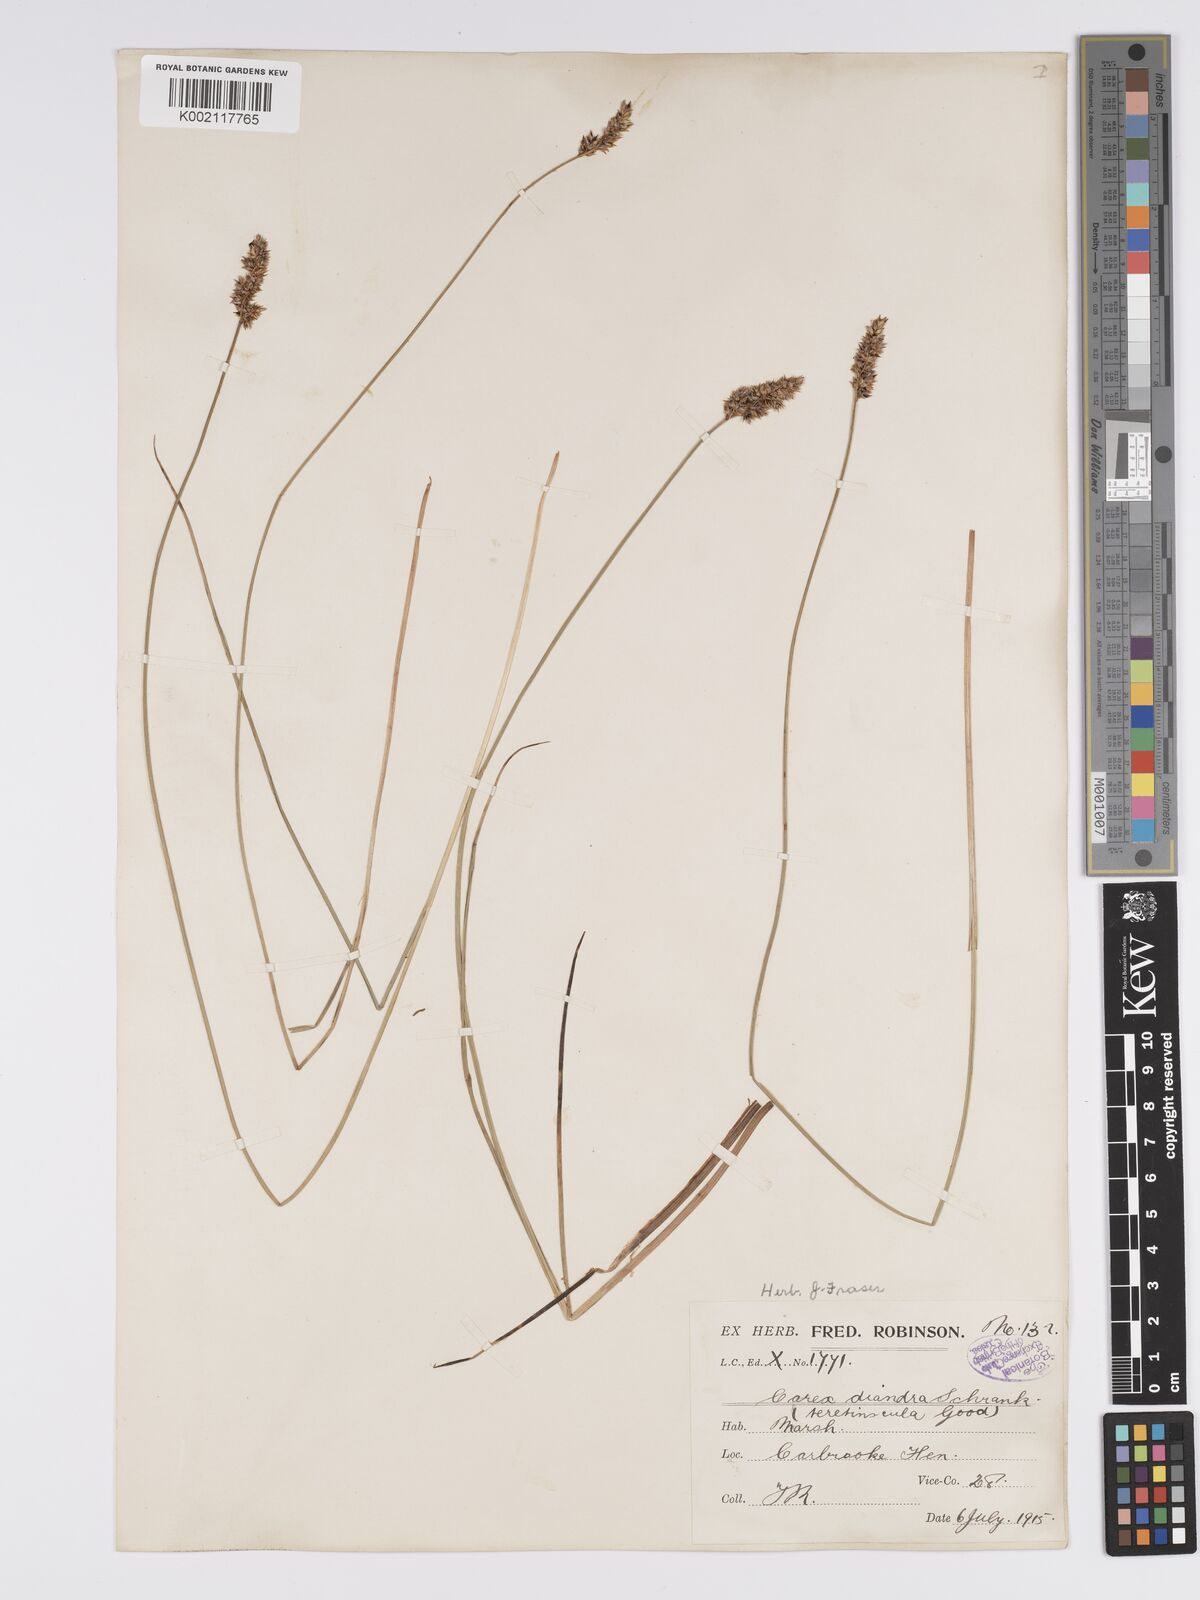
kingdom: Plantae
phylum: Tracheophyta
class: Liliopsida
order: Poales
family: Cyperaceae
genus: Carex
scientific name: Carex diandra
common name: Lesser tussock-sedge
